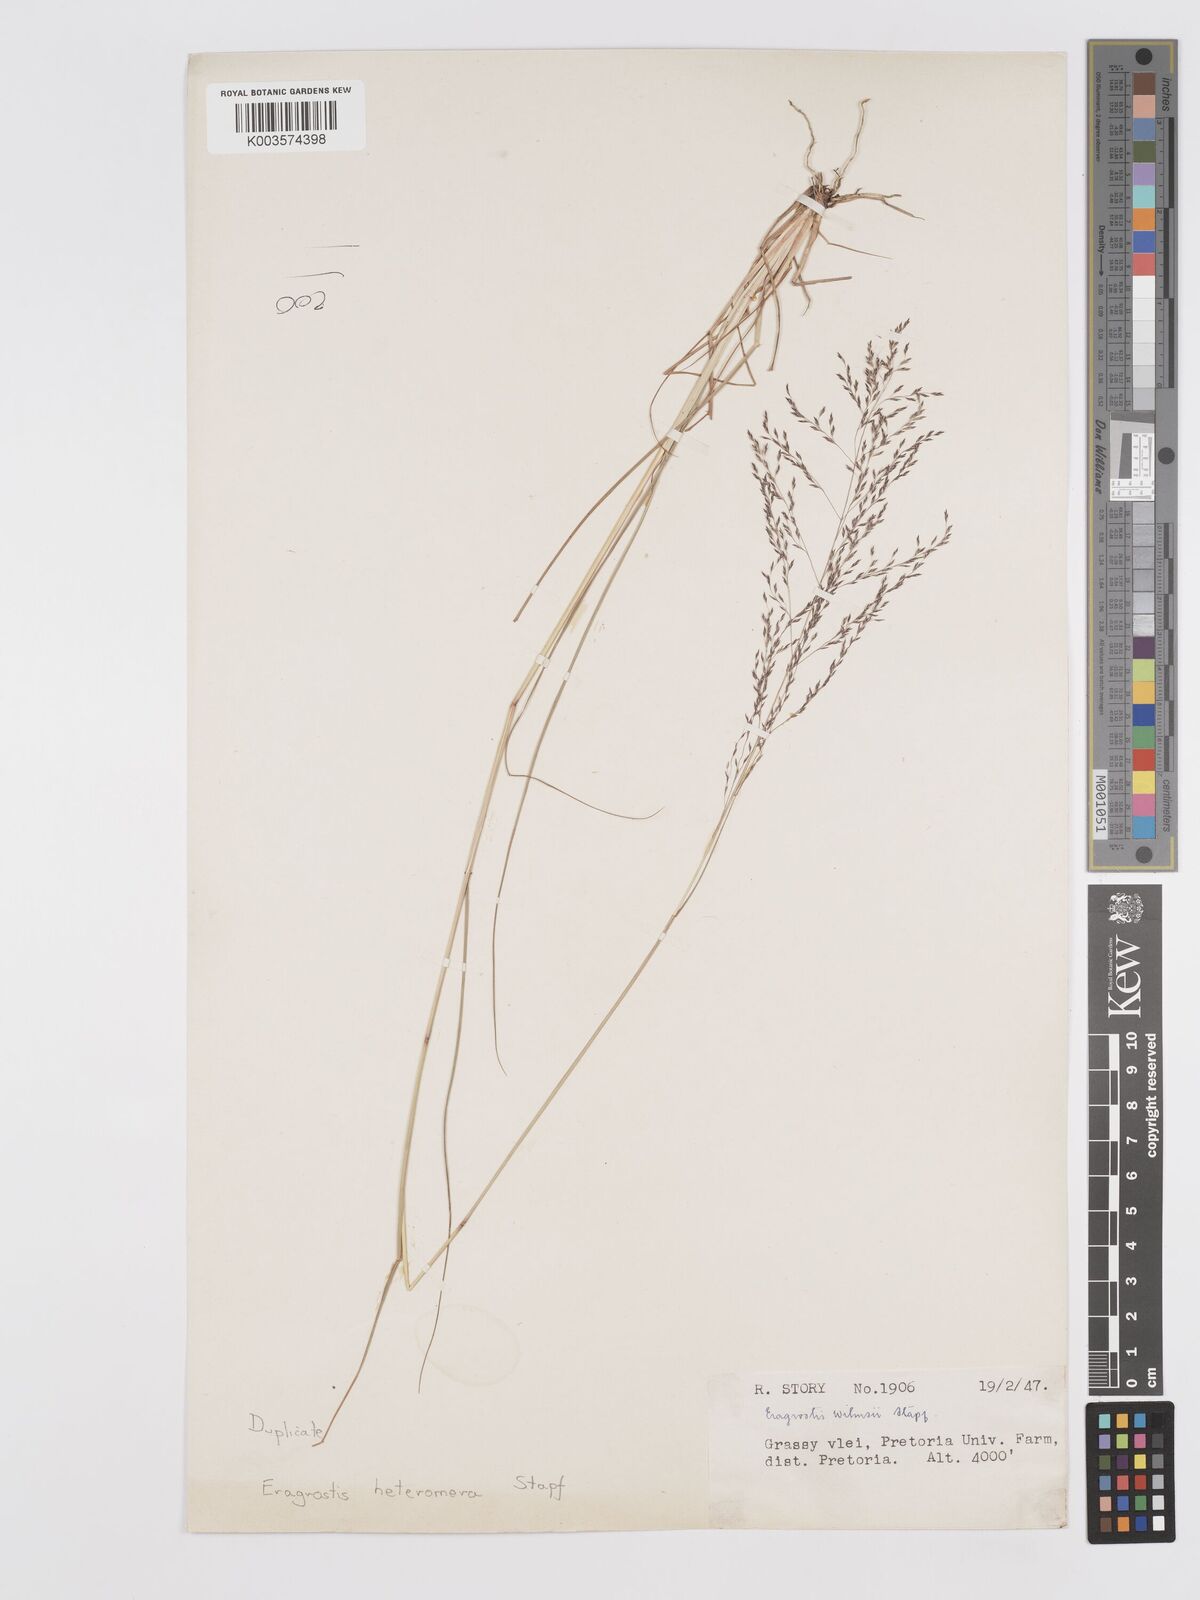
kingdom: Plantae
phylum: Tracheophyta
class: Liliopsida
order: Poales
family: Poaceae
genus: Eragrostis
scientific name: Eragrostis heteromera
